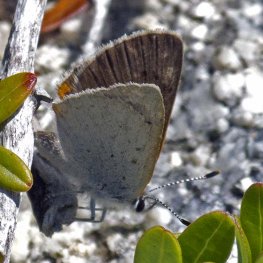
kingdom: Animalia
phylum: Arthropoda
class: Insecta
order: Lepidoptera
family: Sesiidae
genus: Sesia
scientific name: Sesia Lycaena epixanthe
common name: Bog Copper
